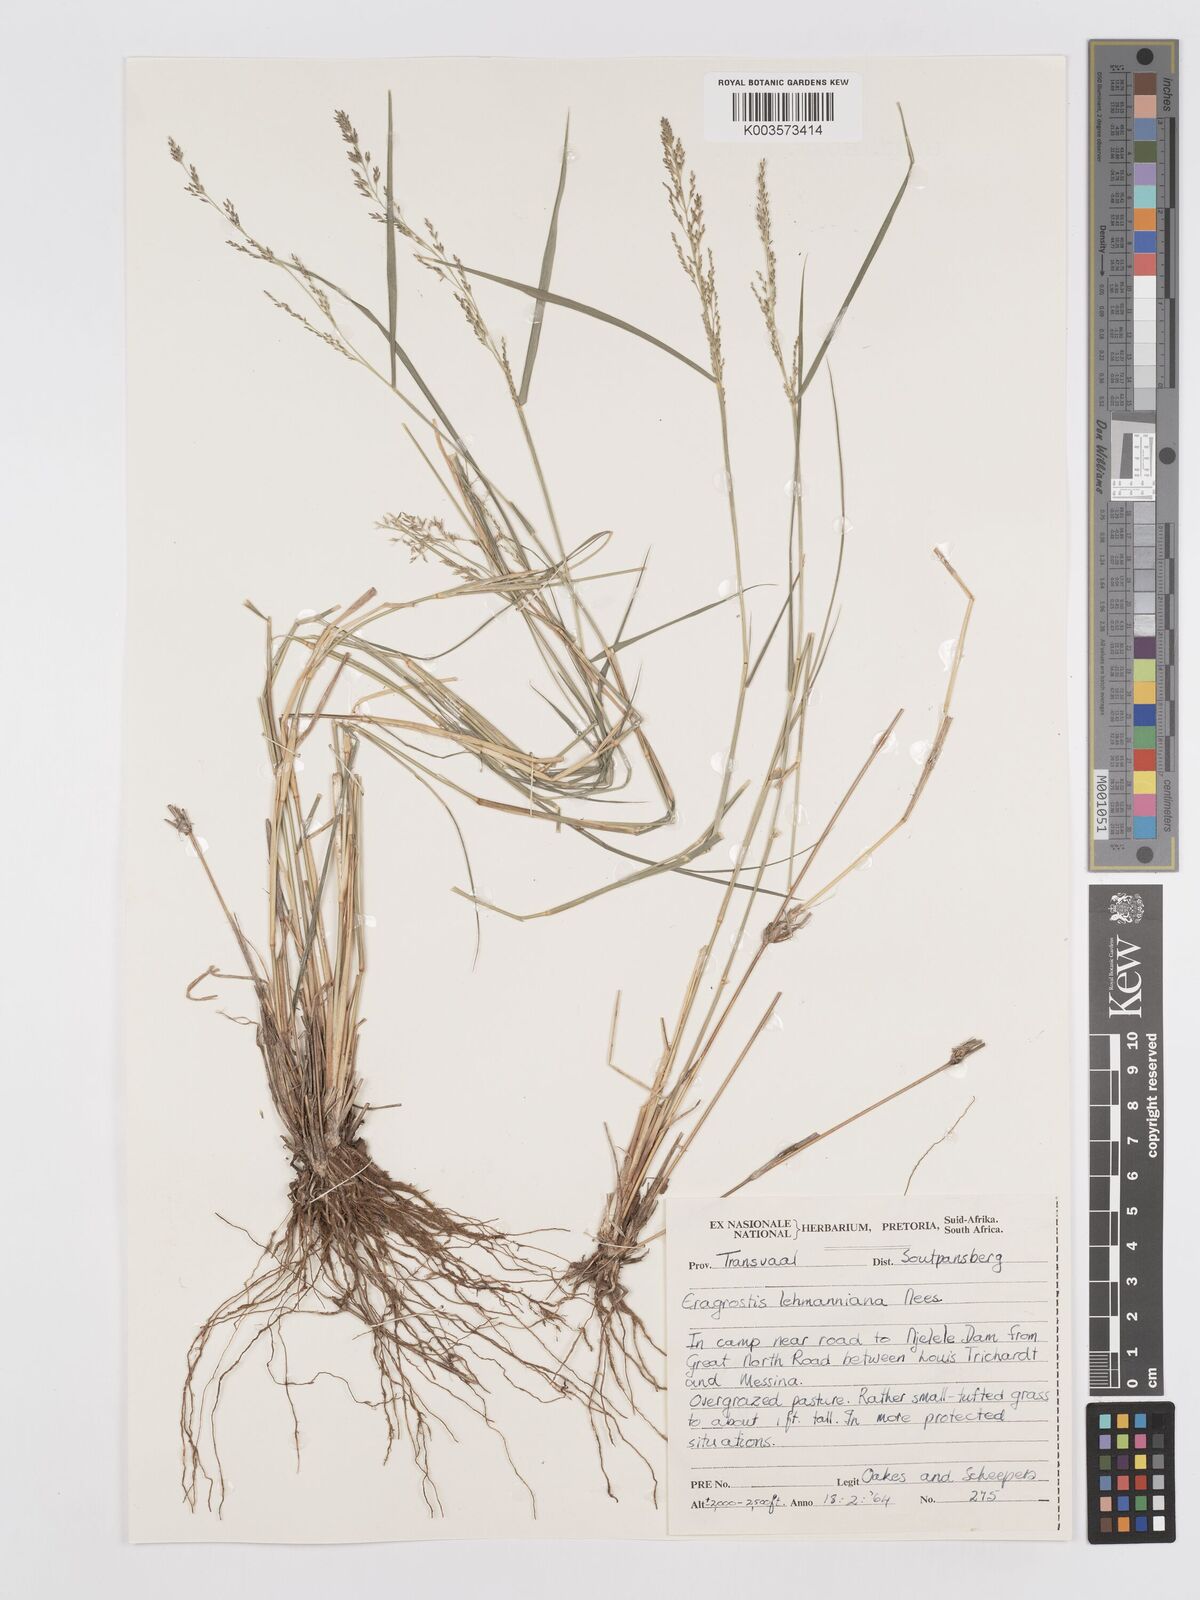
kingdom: Plantae
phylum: Tracheophyta
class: Liliopsida
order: Poales
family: Poaceae
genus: Eragrostis
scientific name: Eragrostis lehmanniana
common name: Lehmann lovegrass
